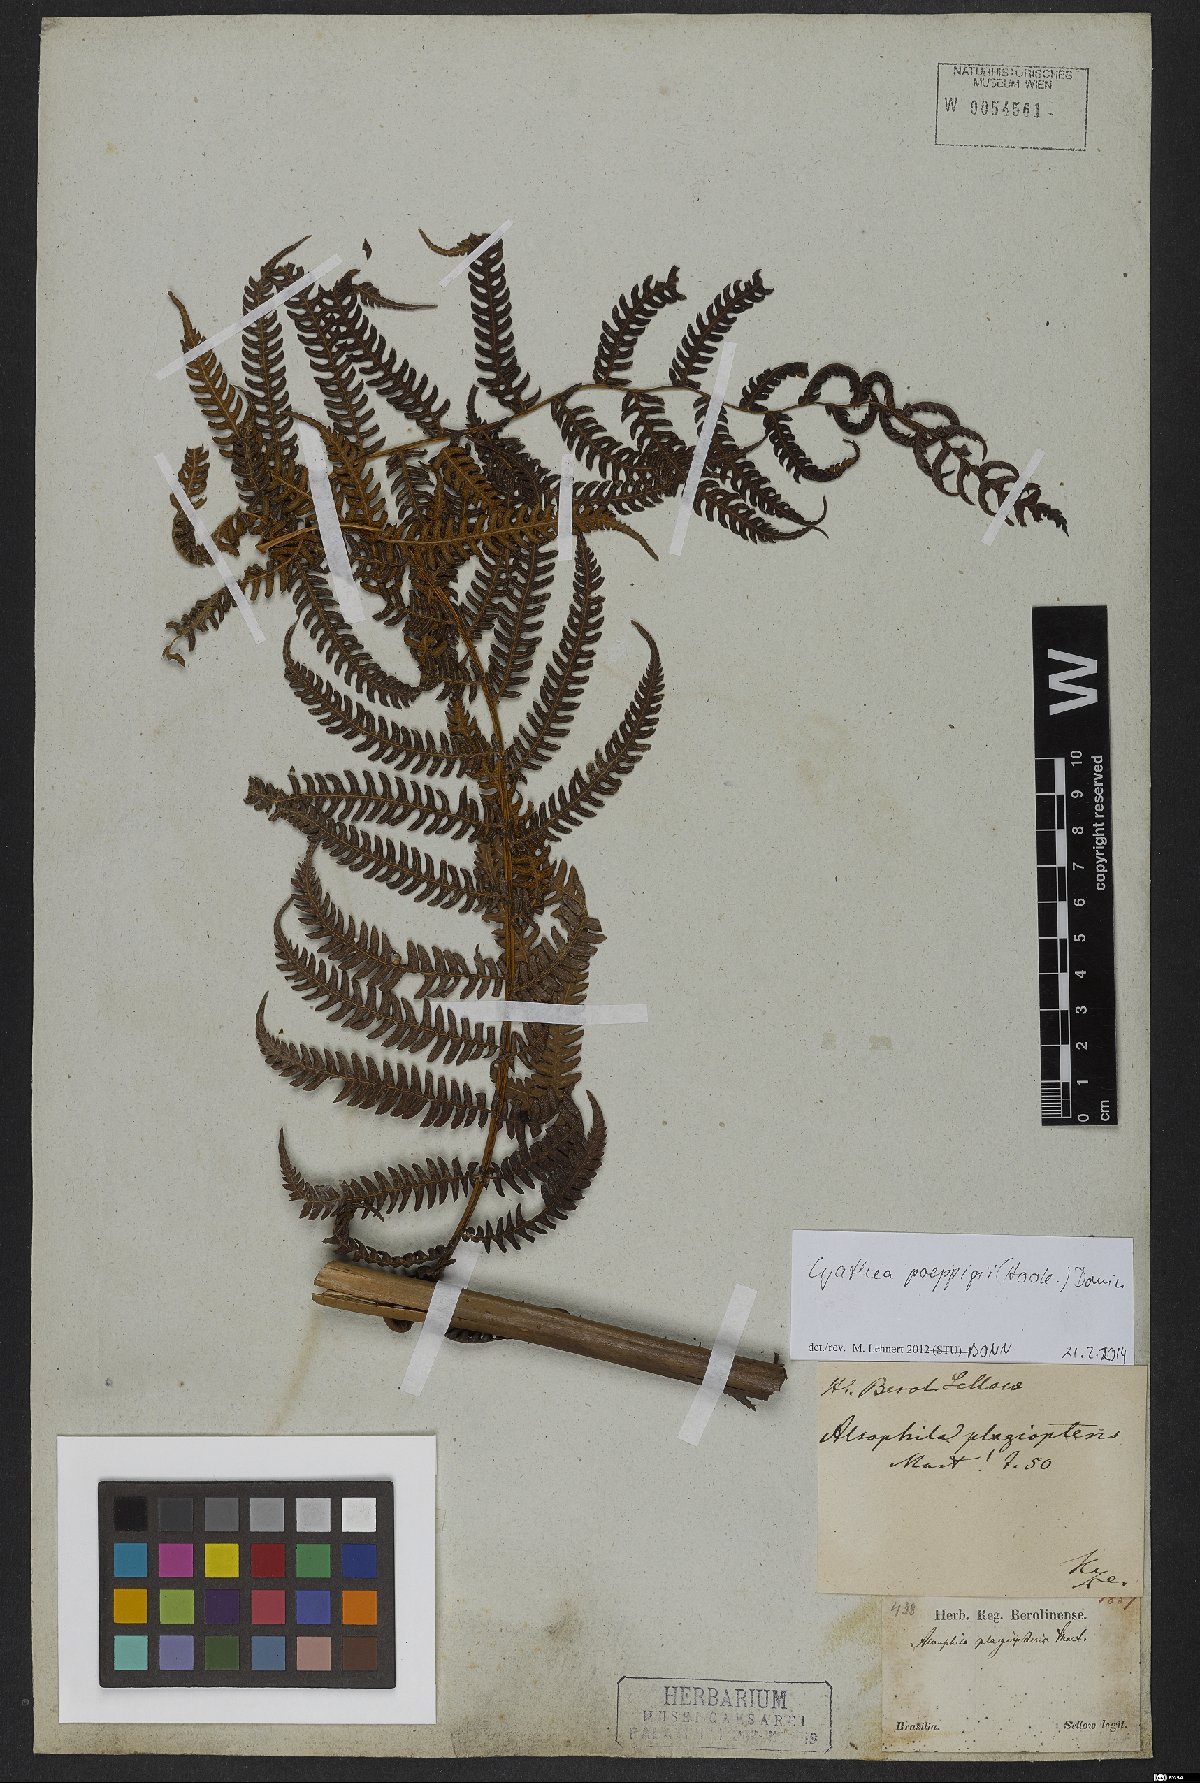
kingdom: Plantae
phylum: Tracheophyta
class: Polypodiopsida
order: Cyatheales
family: Cyatheaceae
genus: Cyathea
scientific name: Cyathea poeppigii
